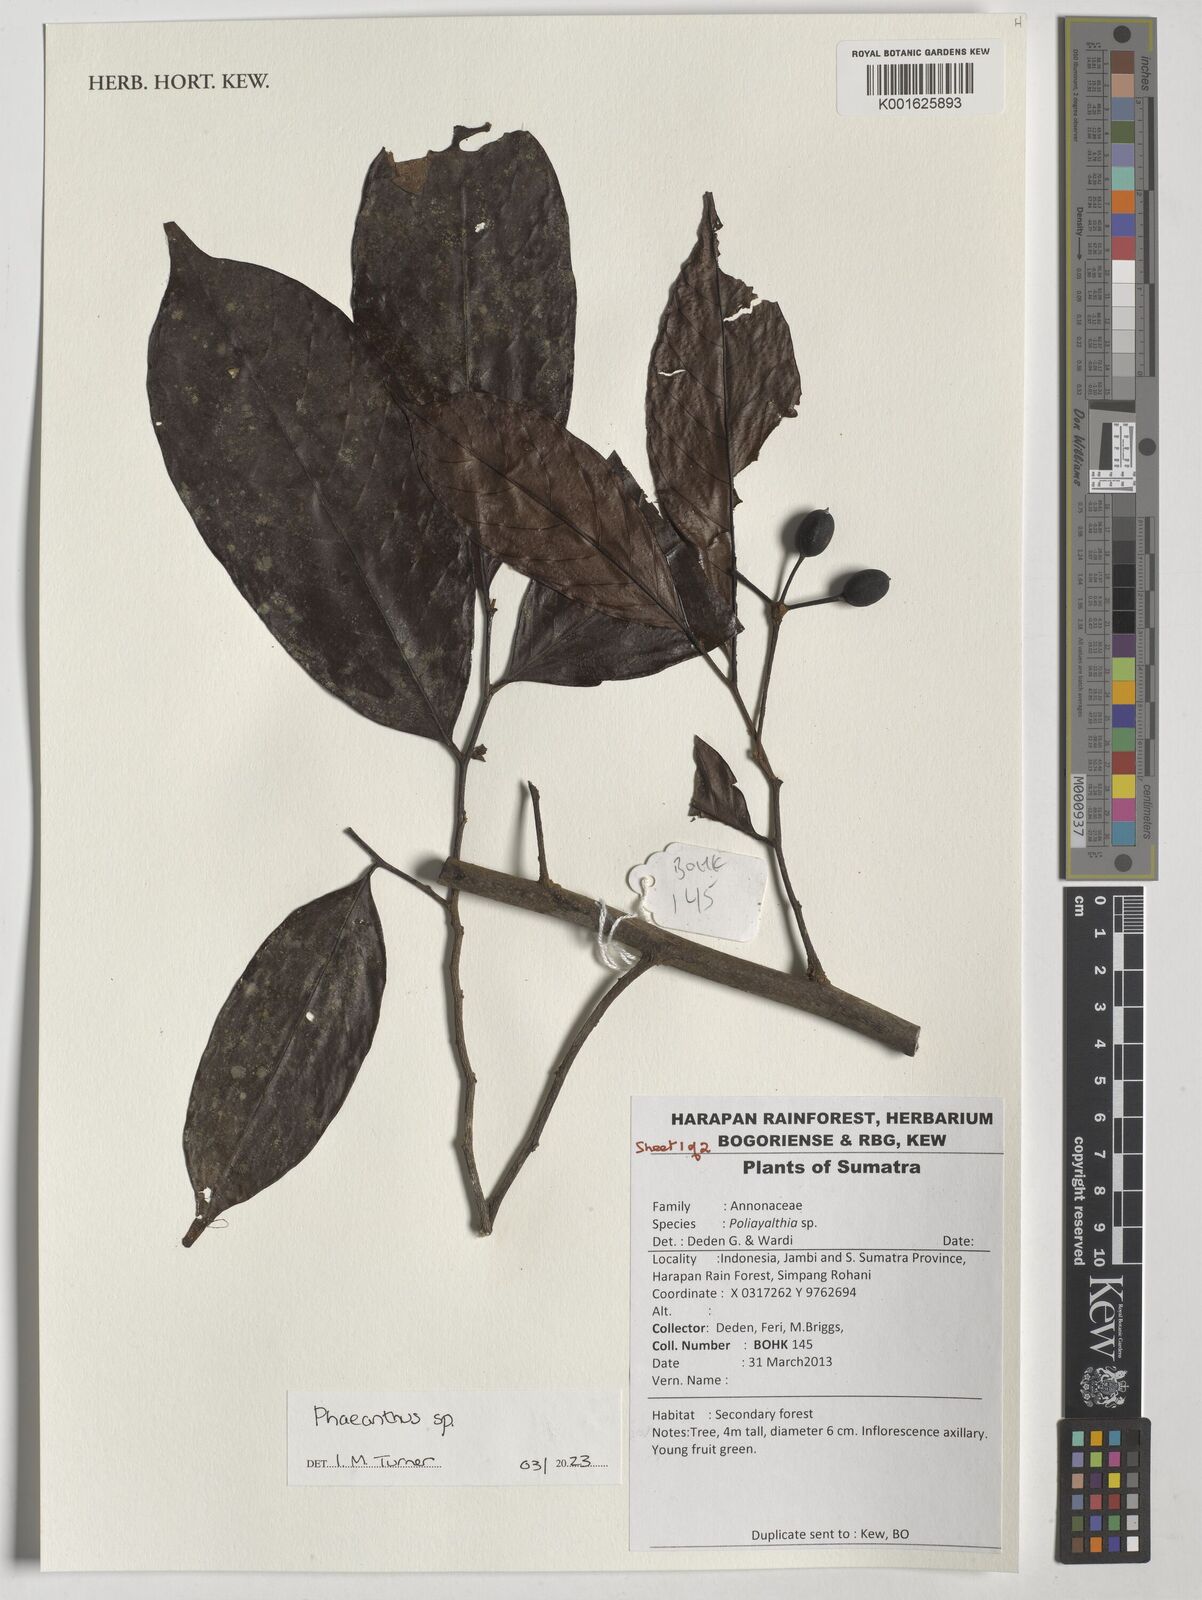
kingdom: Plantae
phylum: Tracheophyta
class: Magnoliopsida
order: Magnoliales
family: Annonaceae
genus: Phaeanthus
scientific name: Phaeanthus
